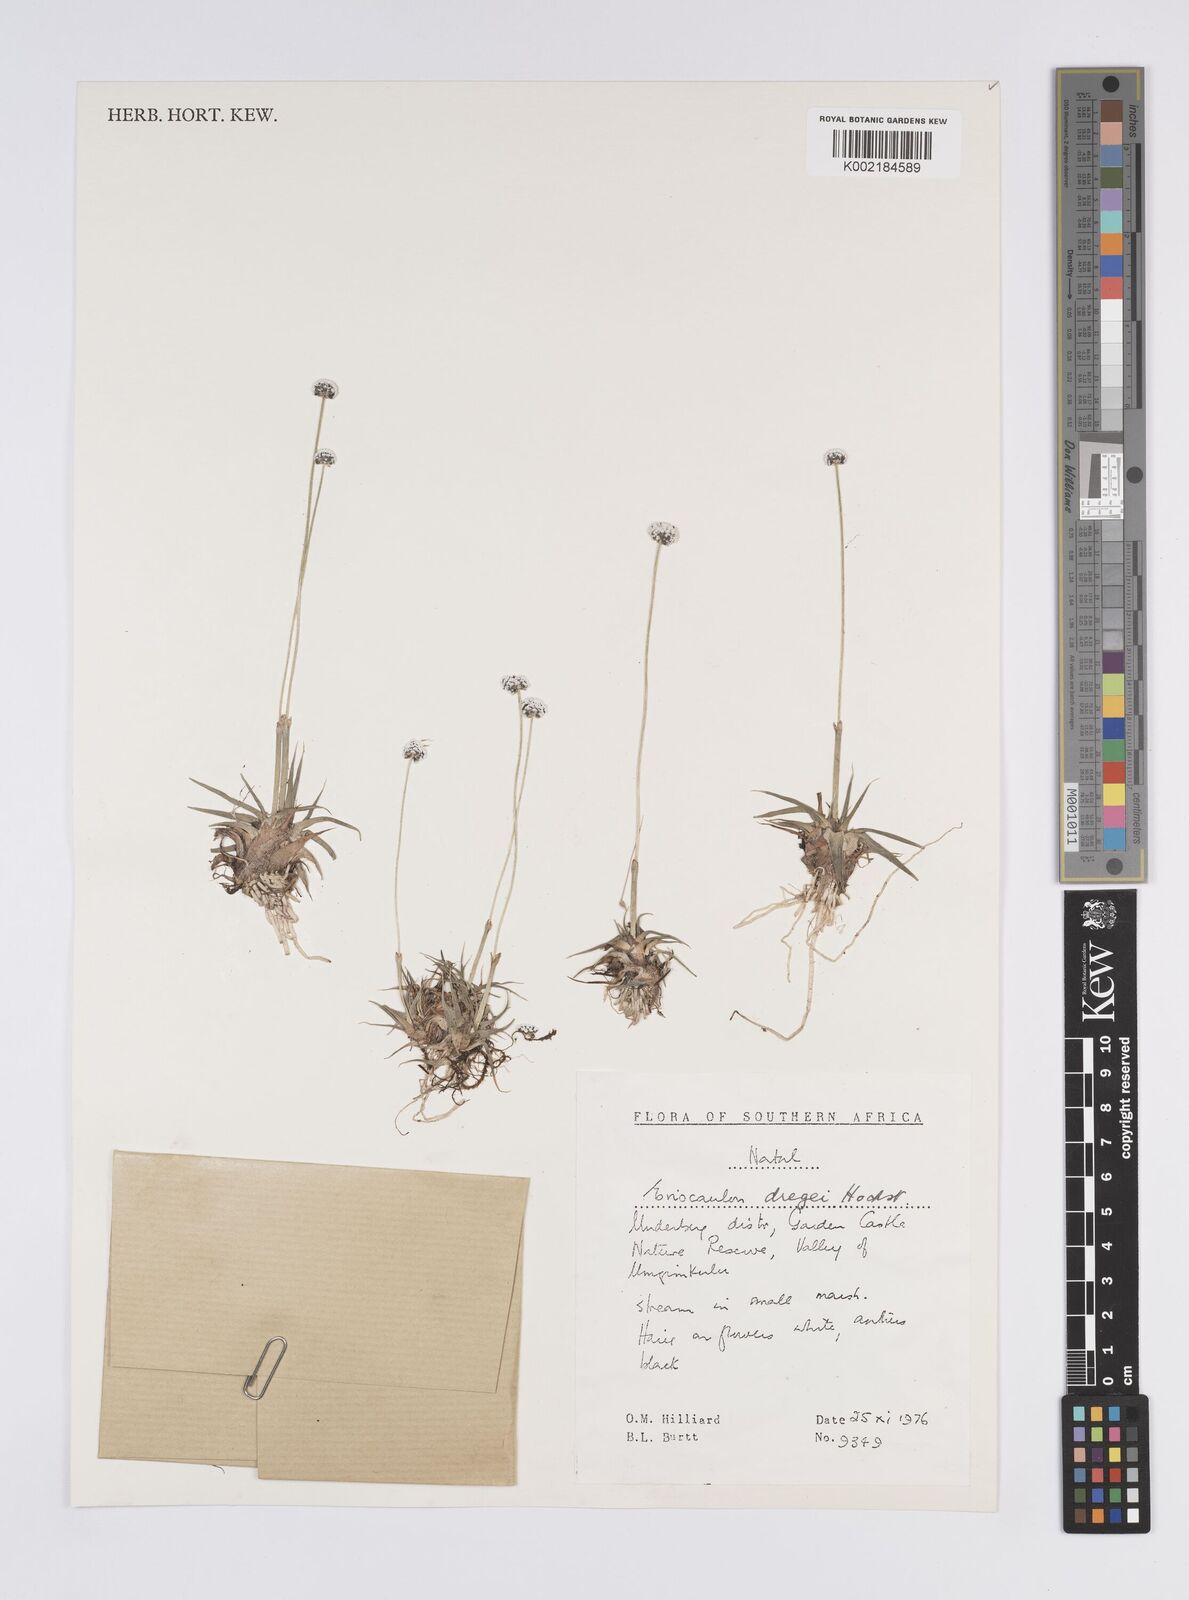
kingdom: Plantae
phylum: Tracheophyta
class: Liliopsida
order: Poales
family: Eriocaulaceae
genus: Eriocaulon
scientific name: Eriocaulon sonderianum
